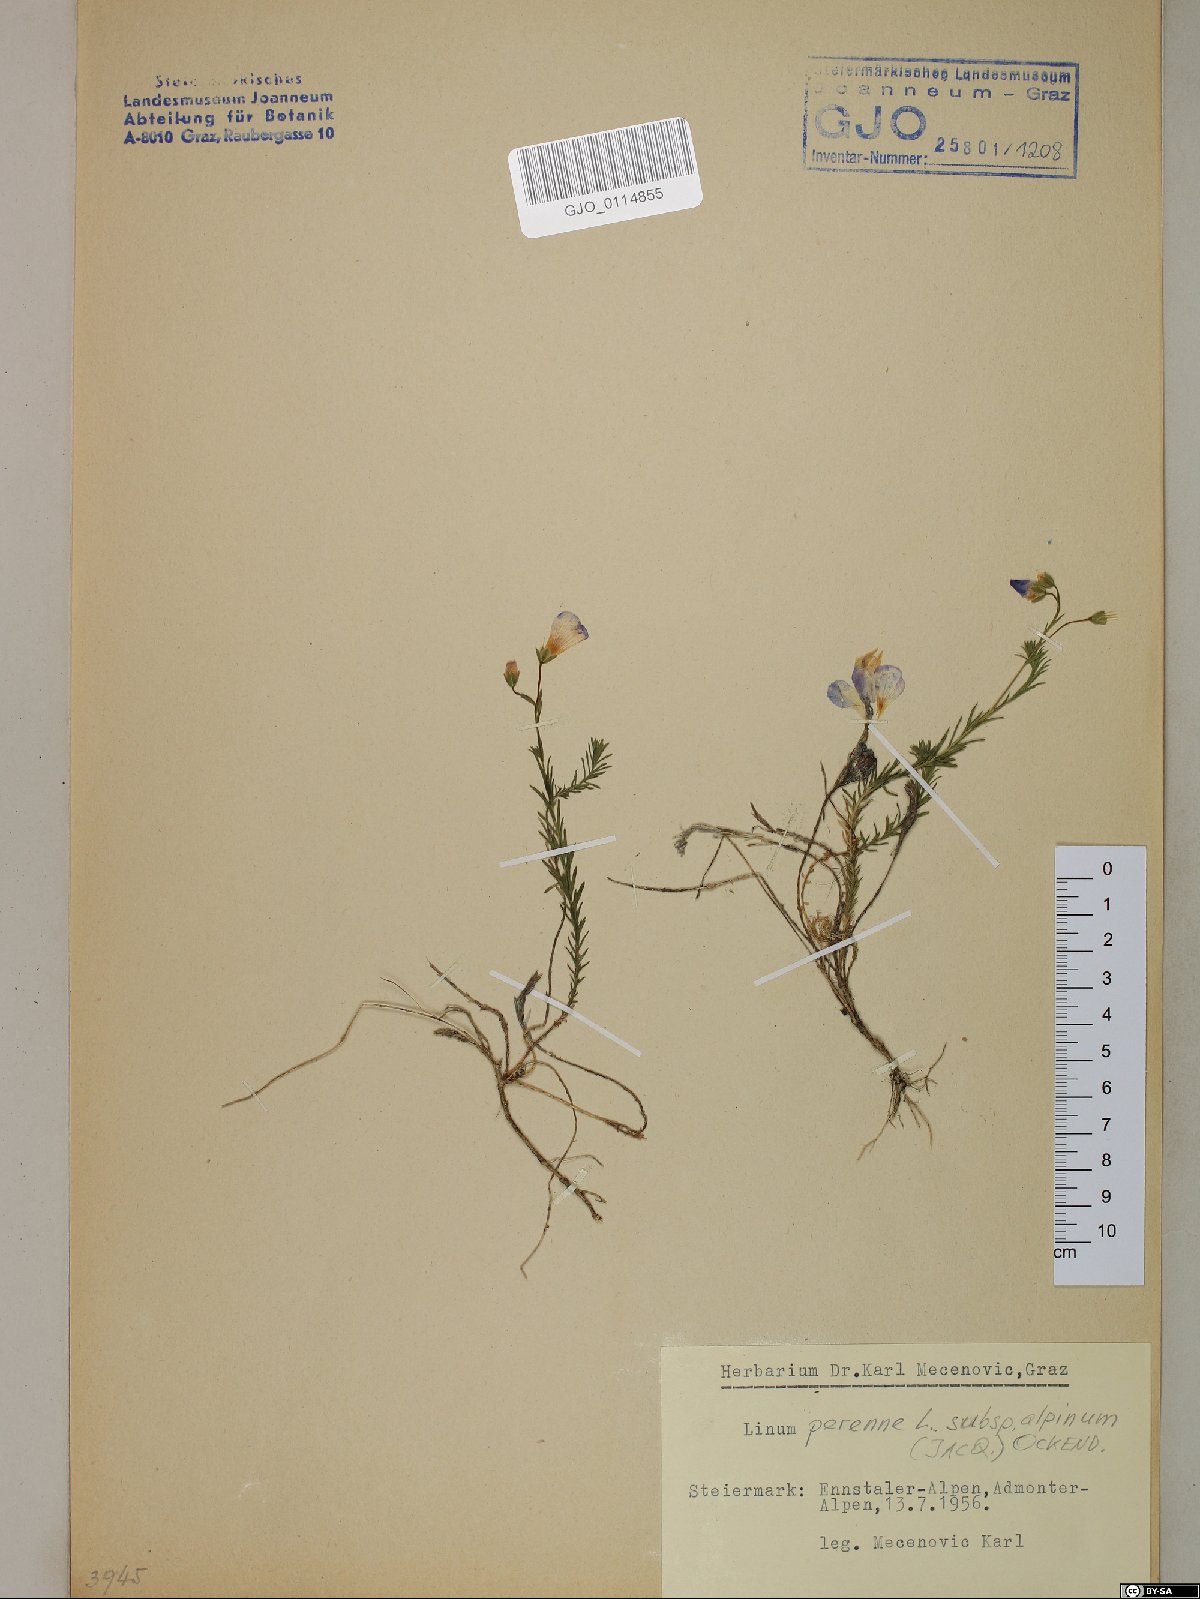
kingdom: Plantae
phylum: Tracheophyta
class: Magnoliopsida
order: Malpighiales
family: Linaceae
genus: Linum
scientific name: Linum alpinum
